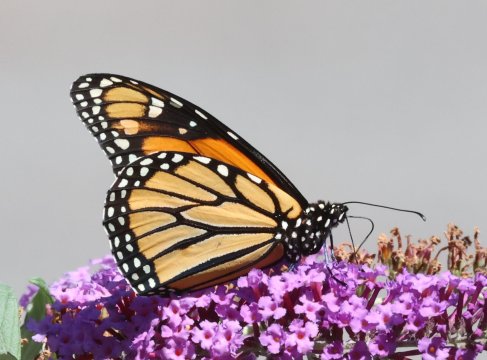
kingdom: Animalia
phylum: Arthropoda
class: Insecta
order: Lepidoptera
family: Nymphalidae
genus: Danaus
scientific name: Danaus plexippus
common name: Monarch
